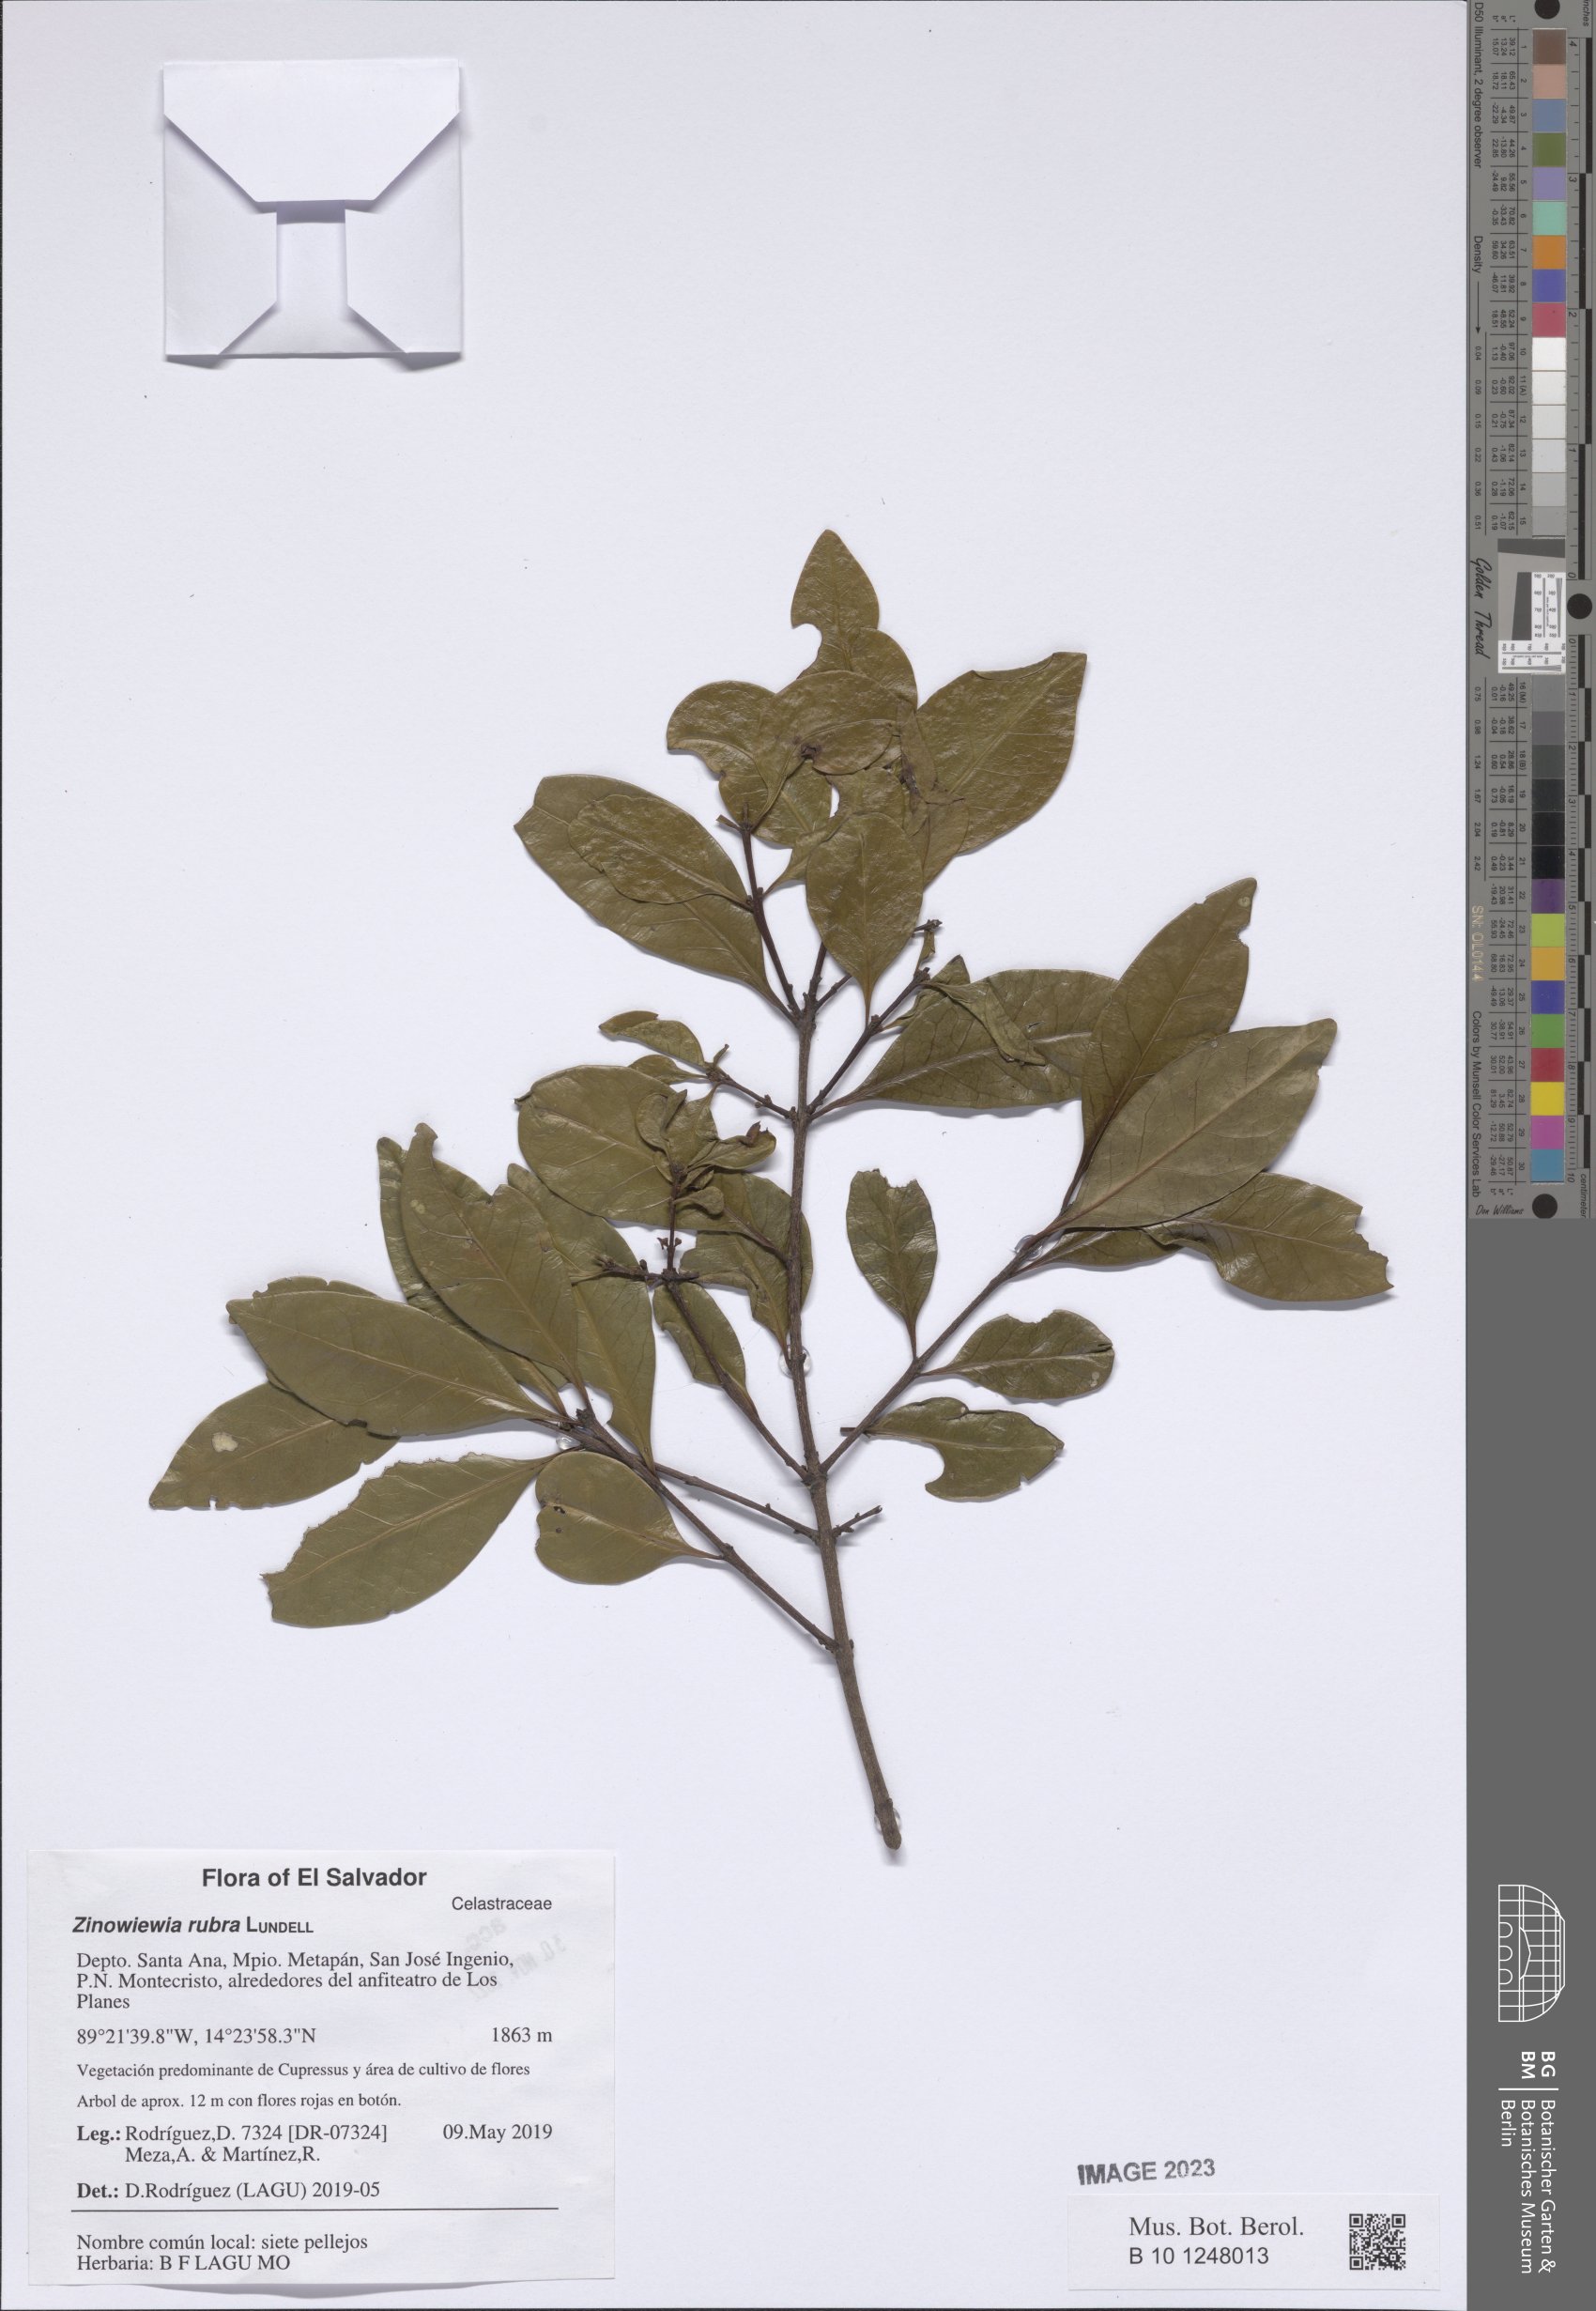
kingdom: Plantae
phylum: Tracheophyta
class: Magnoliopsida
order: Celastrales
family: Celastraceae
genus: Zinowiewia
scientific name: Zinowiewia rubra
